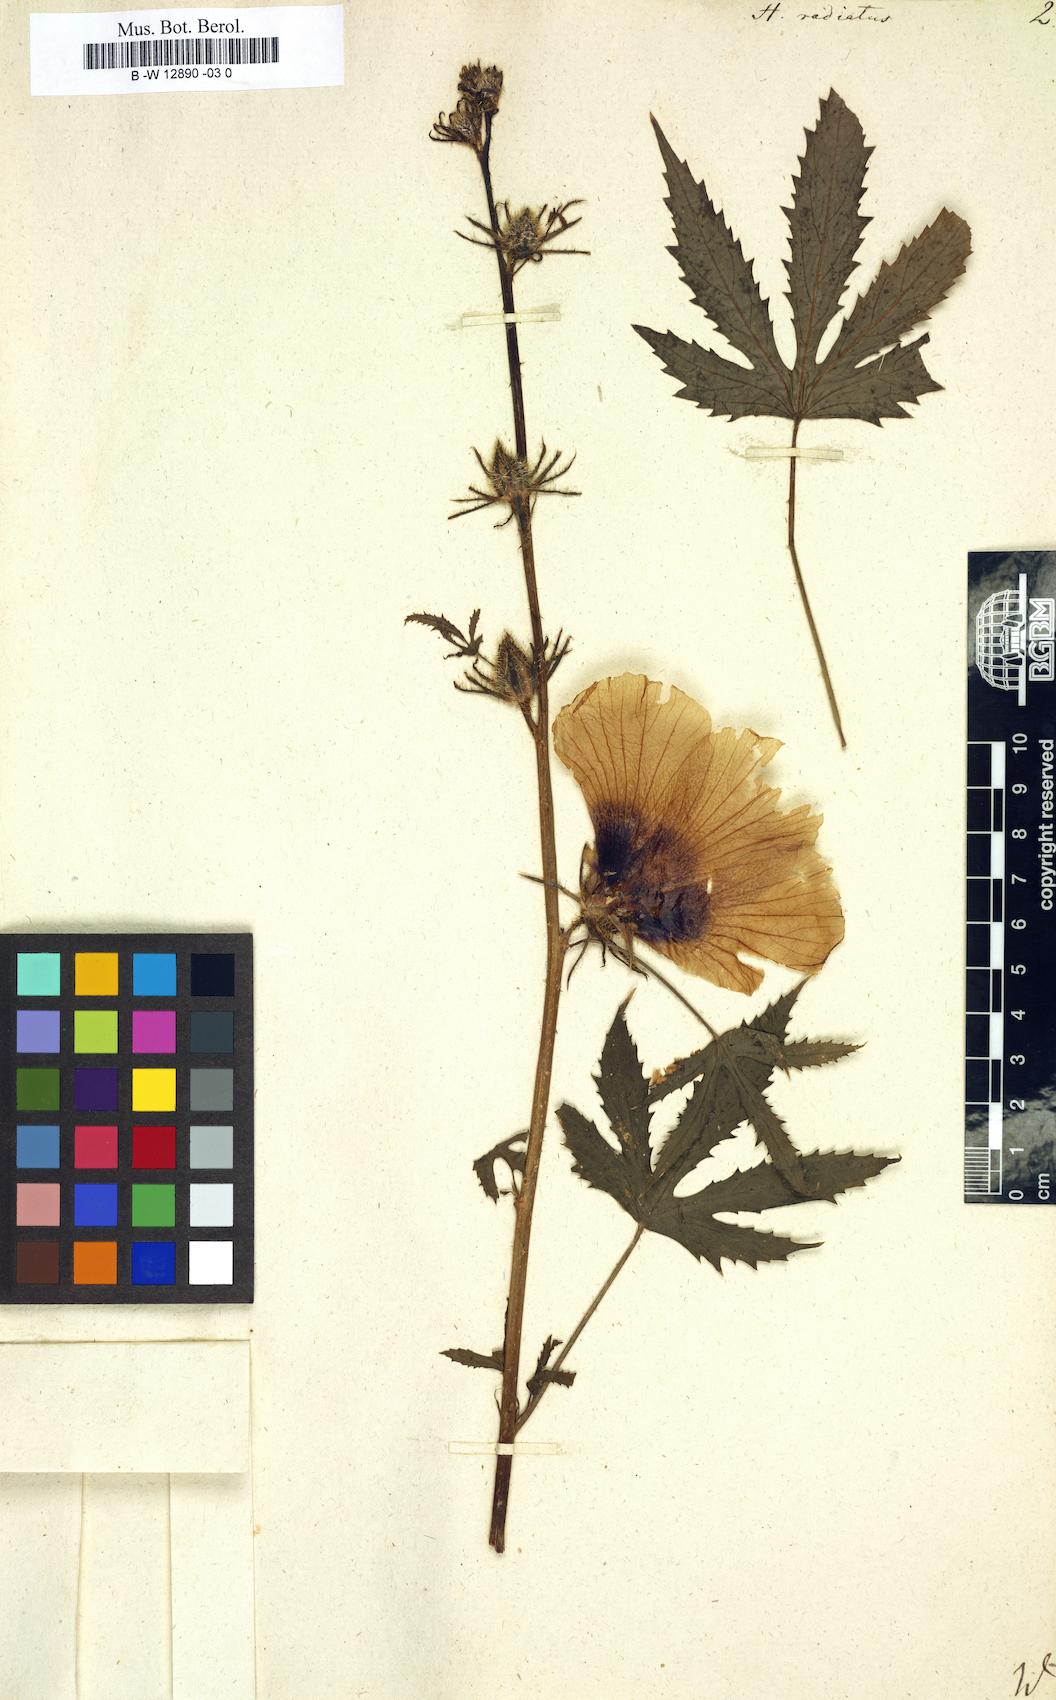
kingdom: Plantae
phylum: Tracheophyta
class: Magnoliopsida
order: Malvales
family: Malvaceae
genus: Abelmoschus
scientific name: Abelmoschus manihot
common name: Sunset muskmallow
